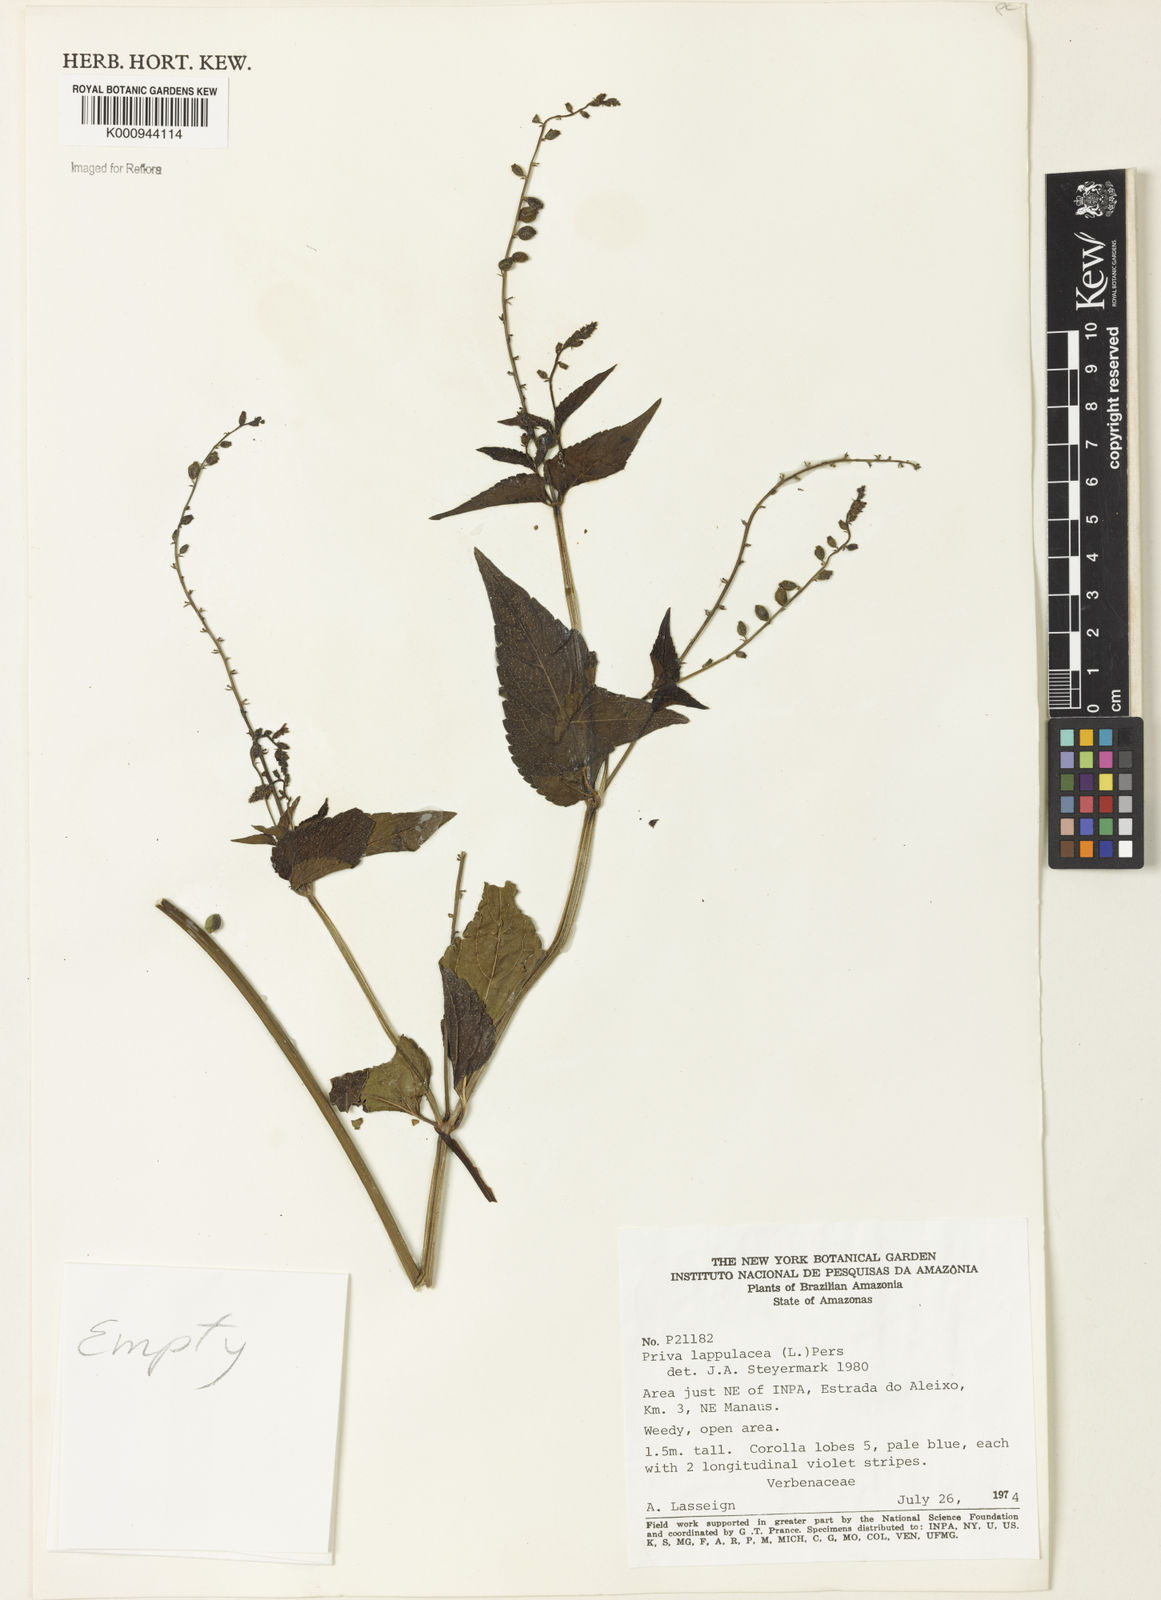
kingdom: Plantae
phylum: Tracheophyta
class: Magnoliopsida
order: Lamiales
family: Verbenaceae
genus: Priva
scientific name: Priva lappulacea
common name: Fasten-'pon-coat
